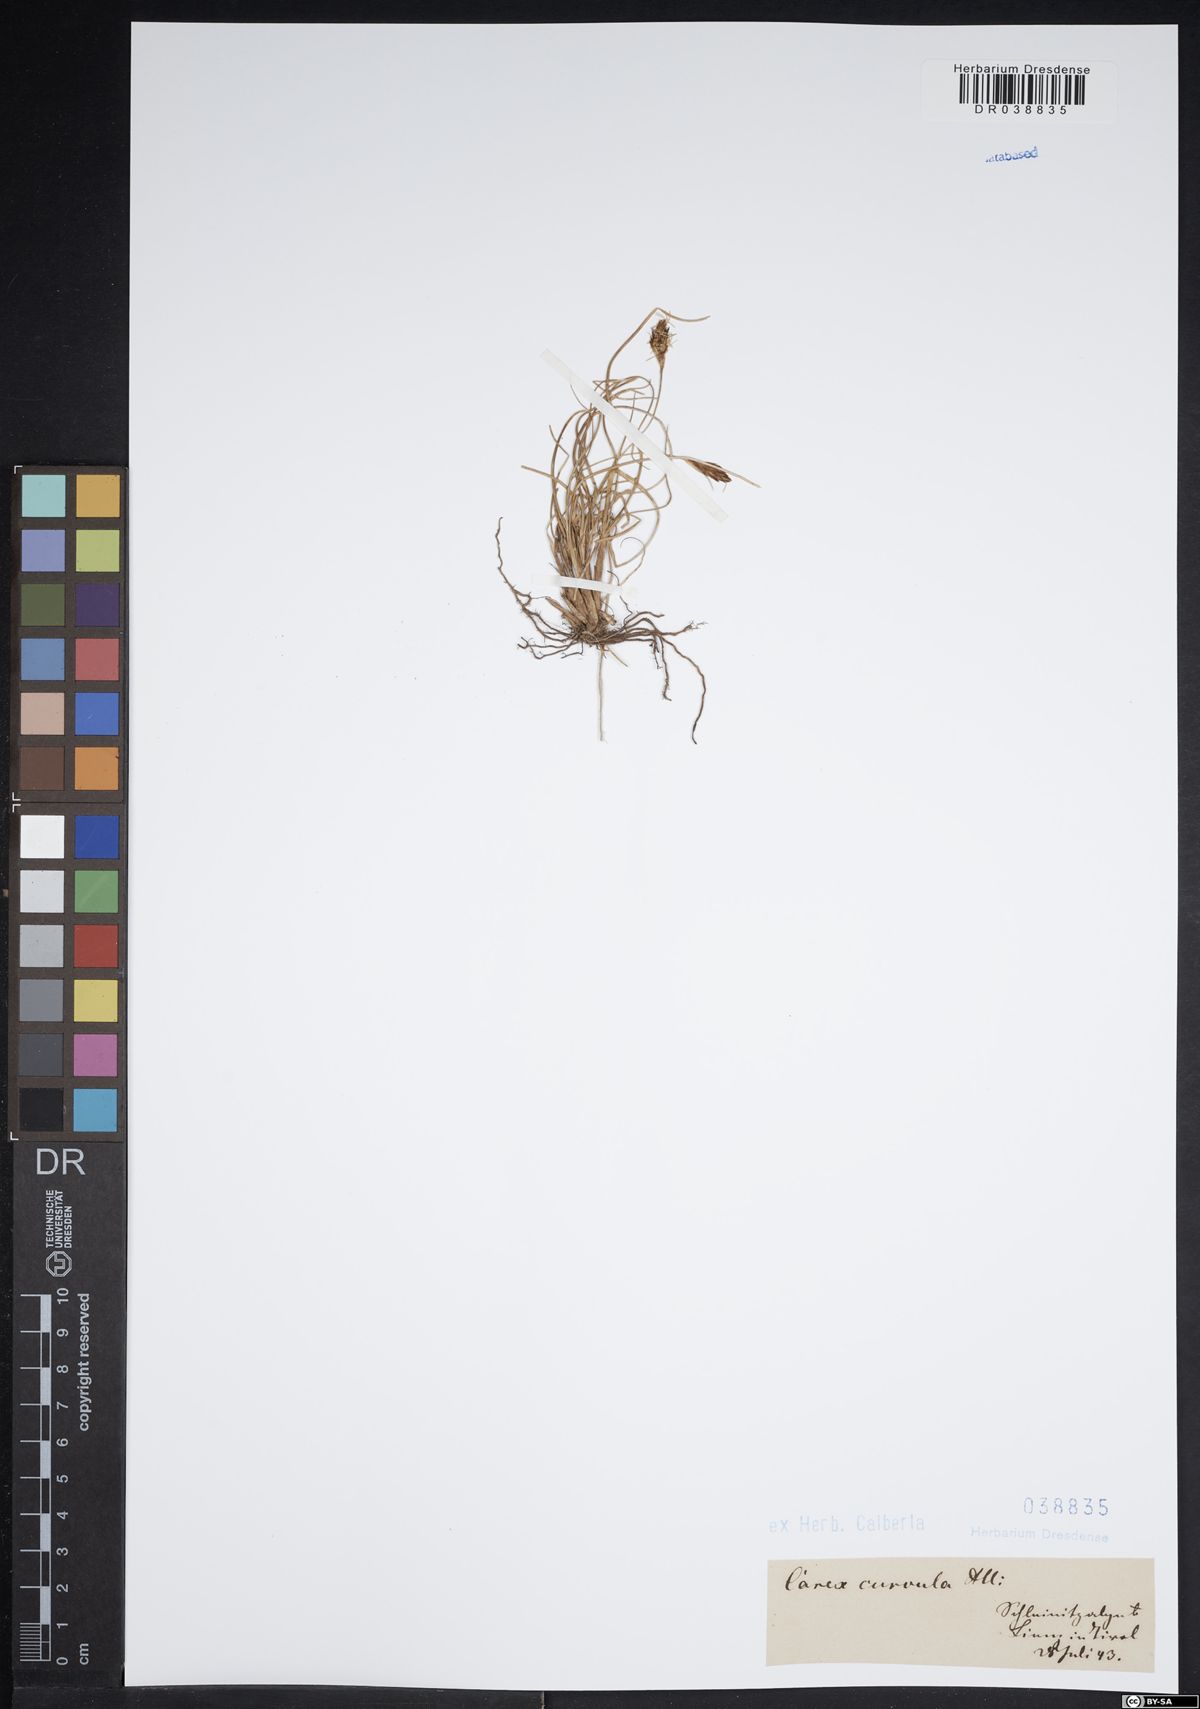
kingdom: Plantae
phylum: Tracheophyta
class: Liliopsida
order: Poales
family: Cyperaceae
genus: Carex
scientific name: Carex curvula
